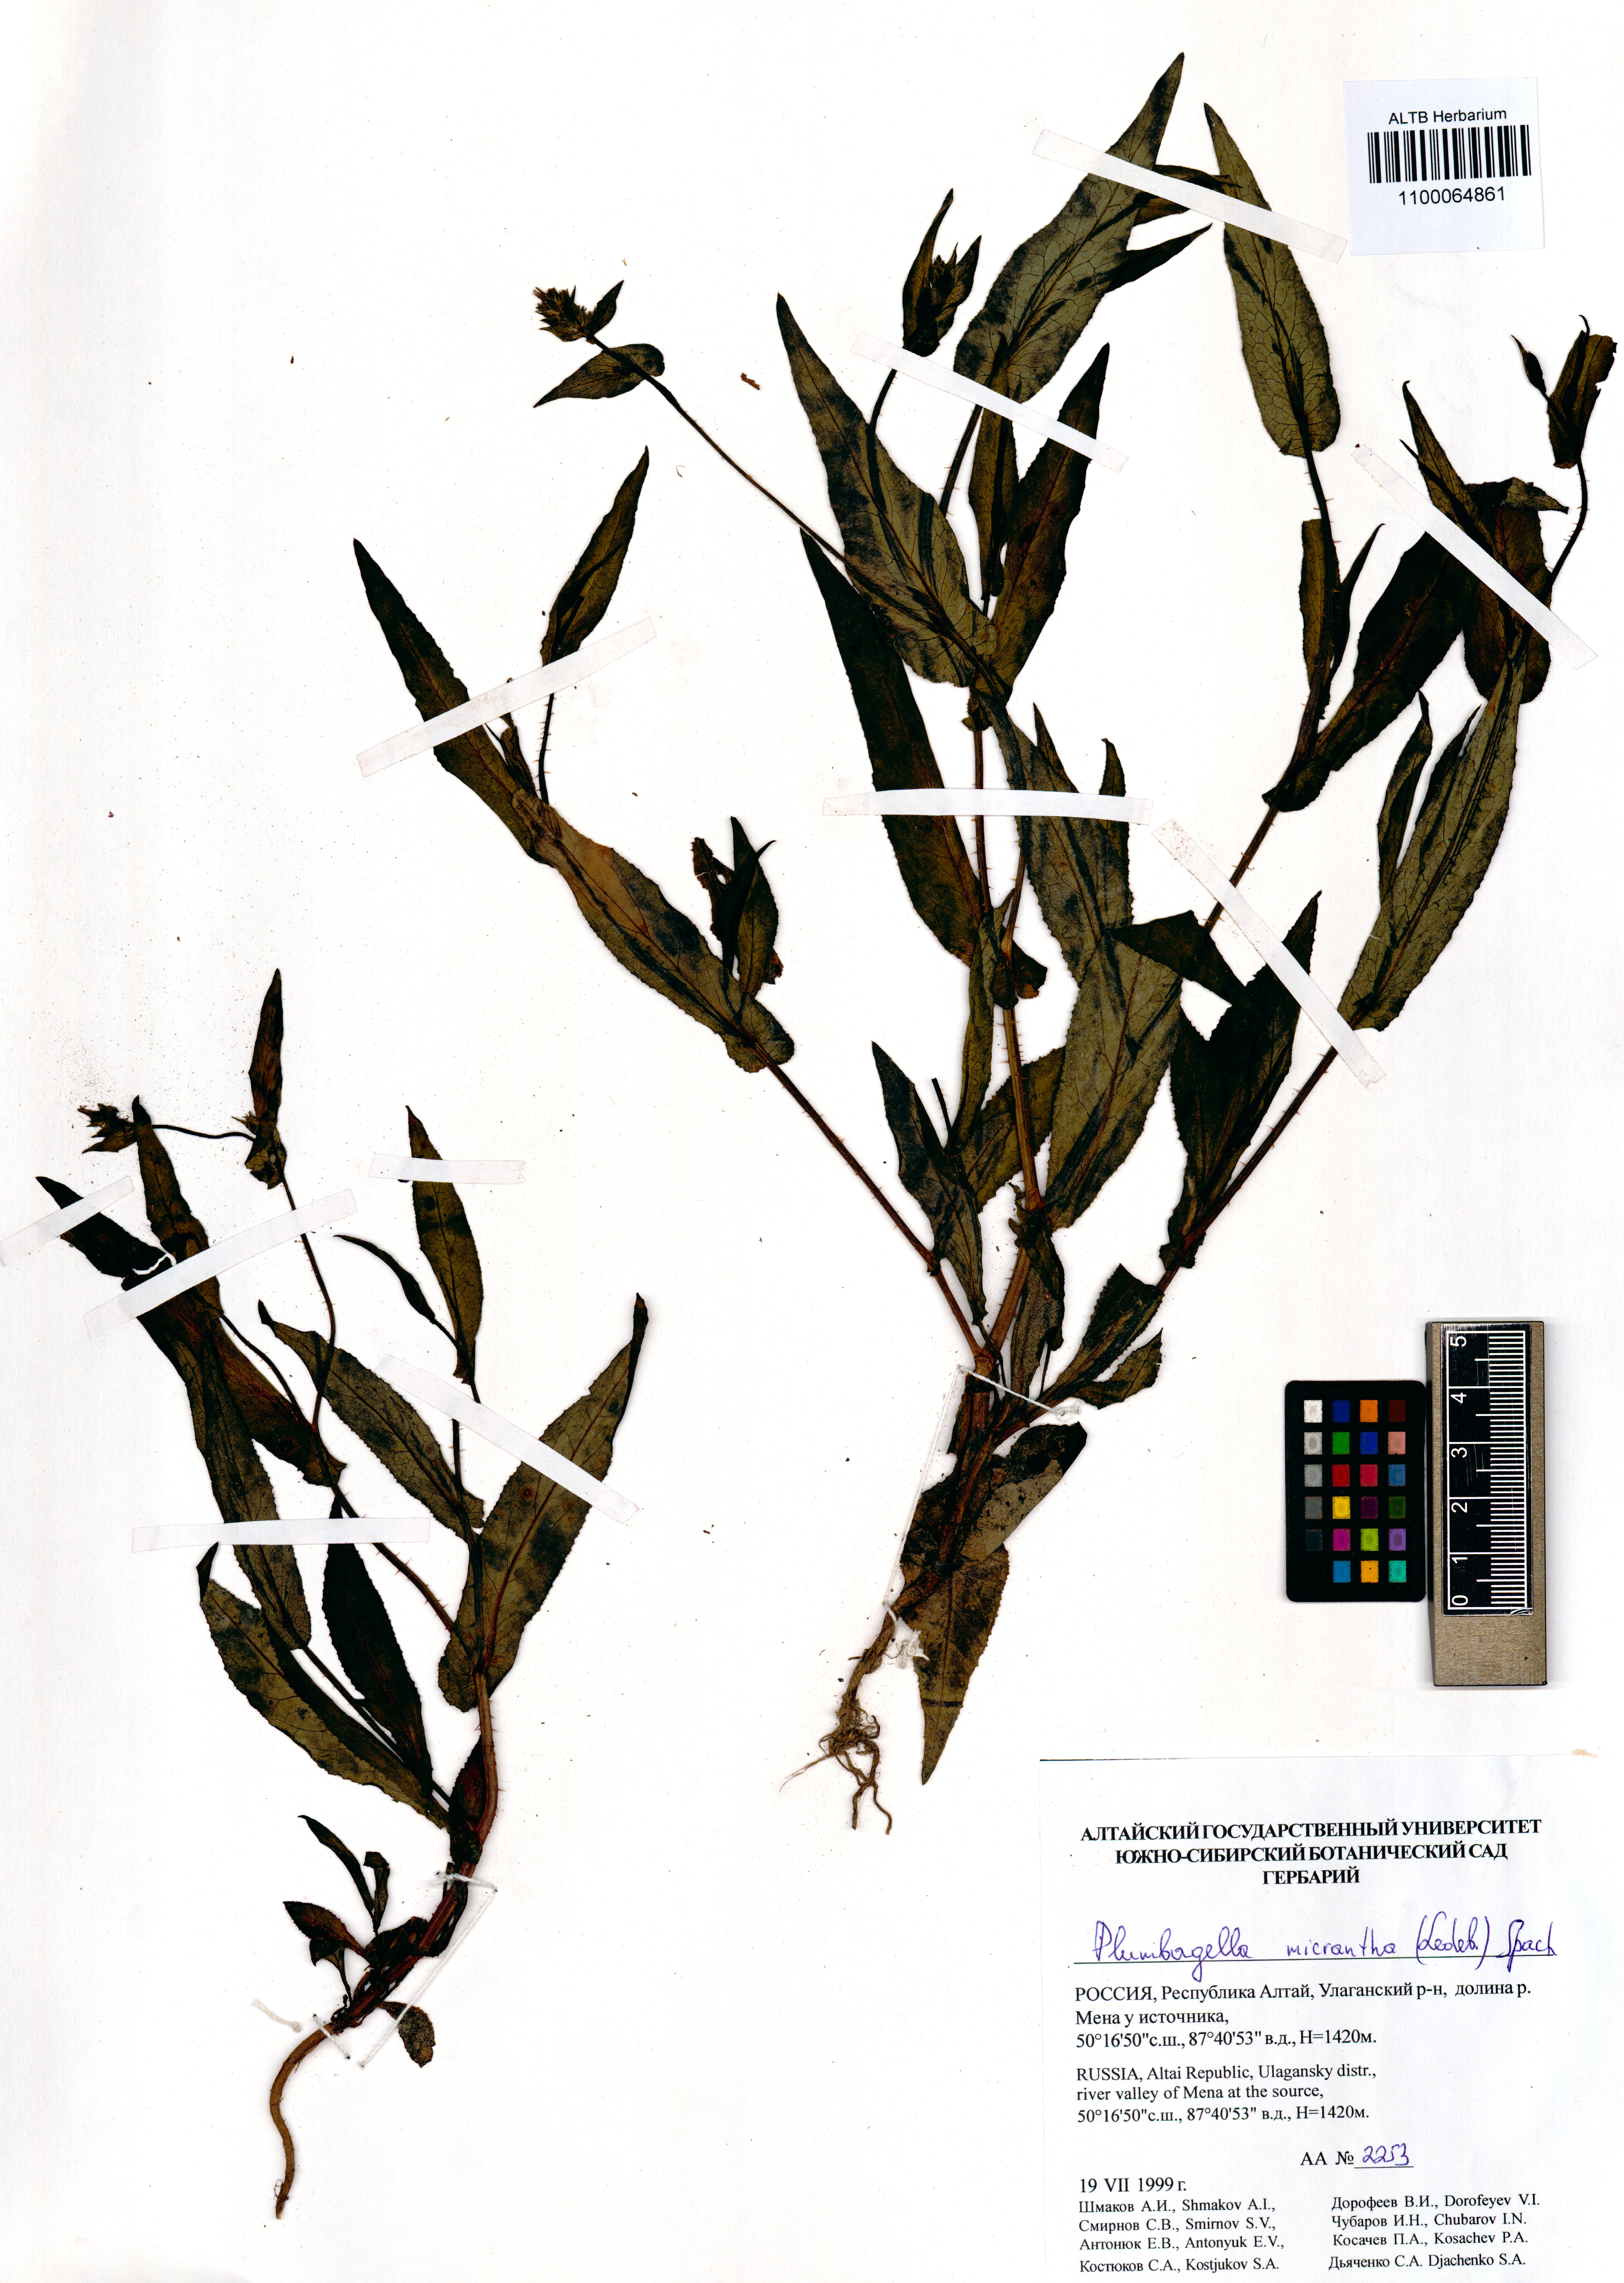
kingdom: Plantae
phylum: Tracheophyta
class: Magnoliopsida
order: Caryophyllales
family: Plumbaginaceae
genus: Plumbagella
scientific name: Plumbagella micrantha
